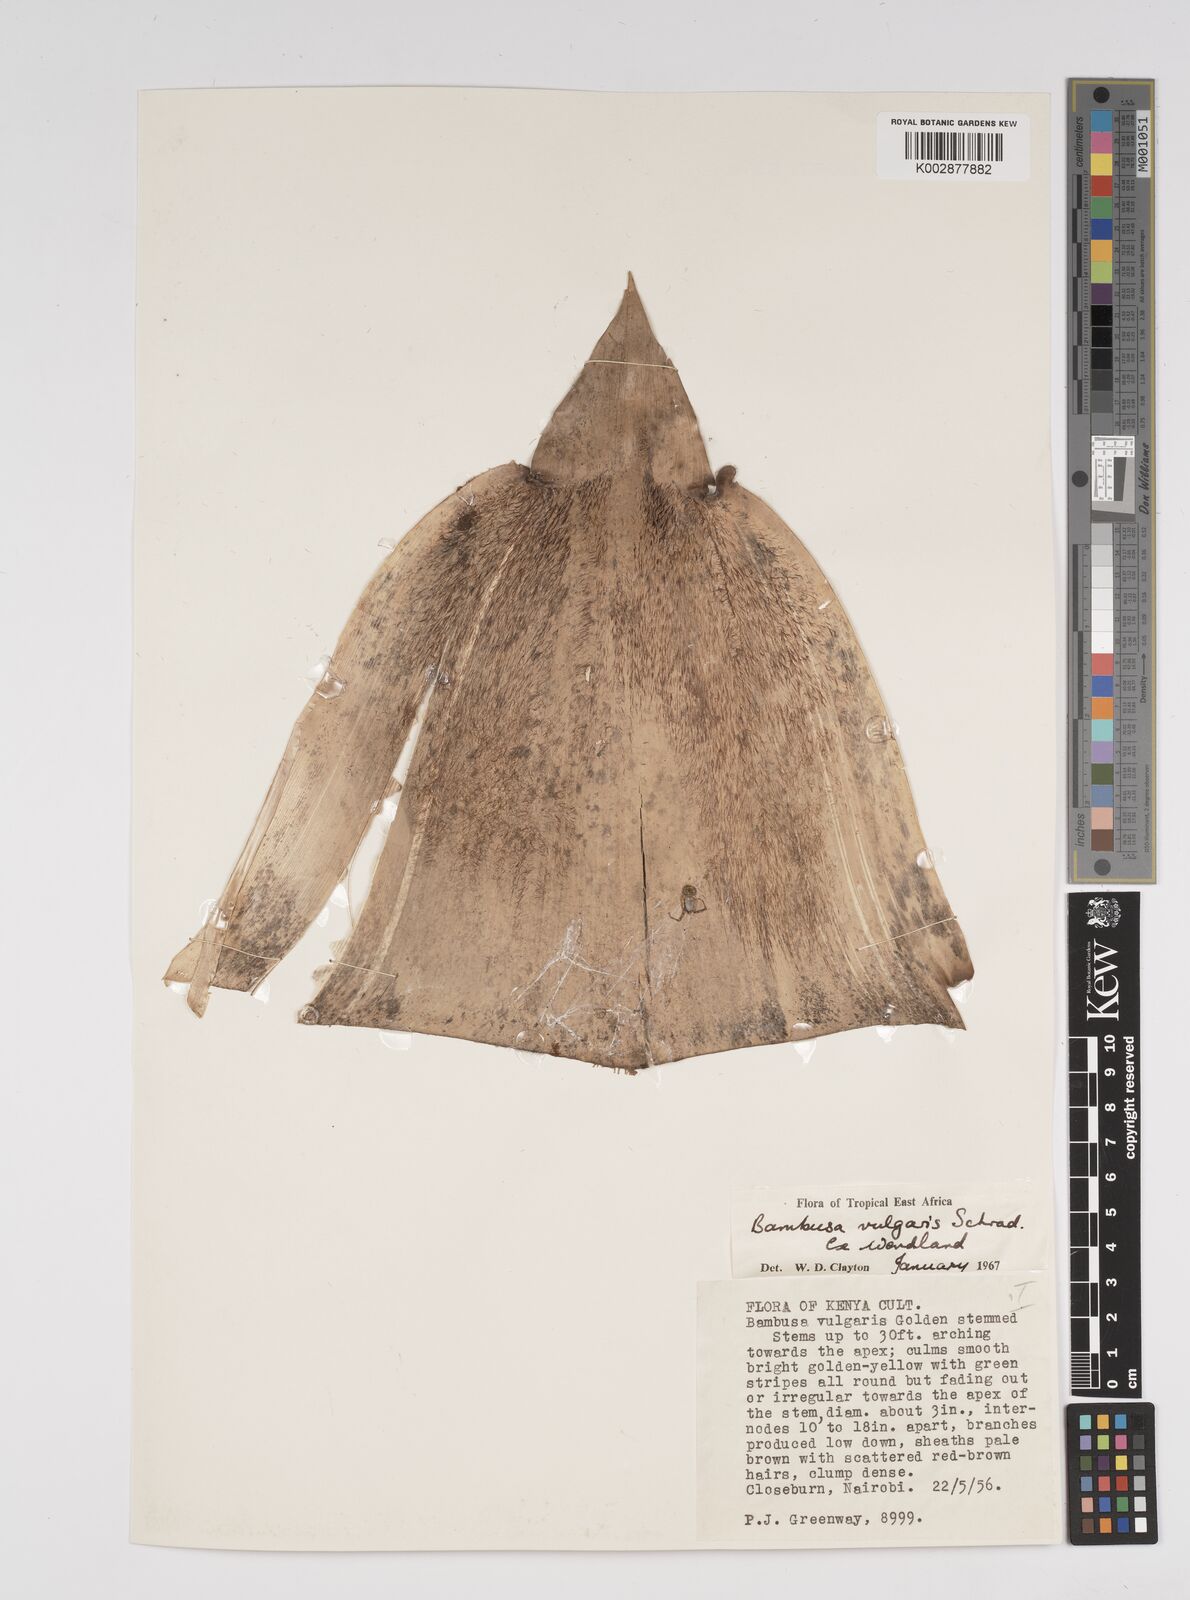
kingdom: Plantae
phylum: Tracheophyta
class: Liliopsida
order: Poales
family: Poaceae
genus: Bambusa
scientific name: Bambusa balcooa
